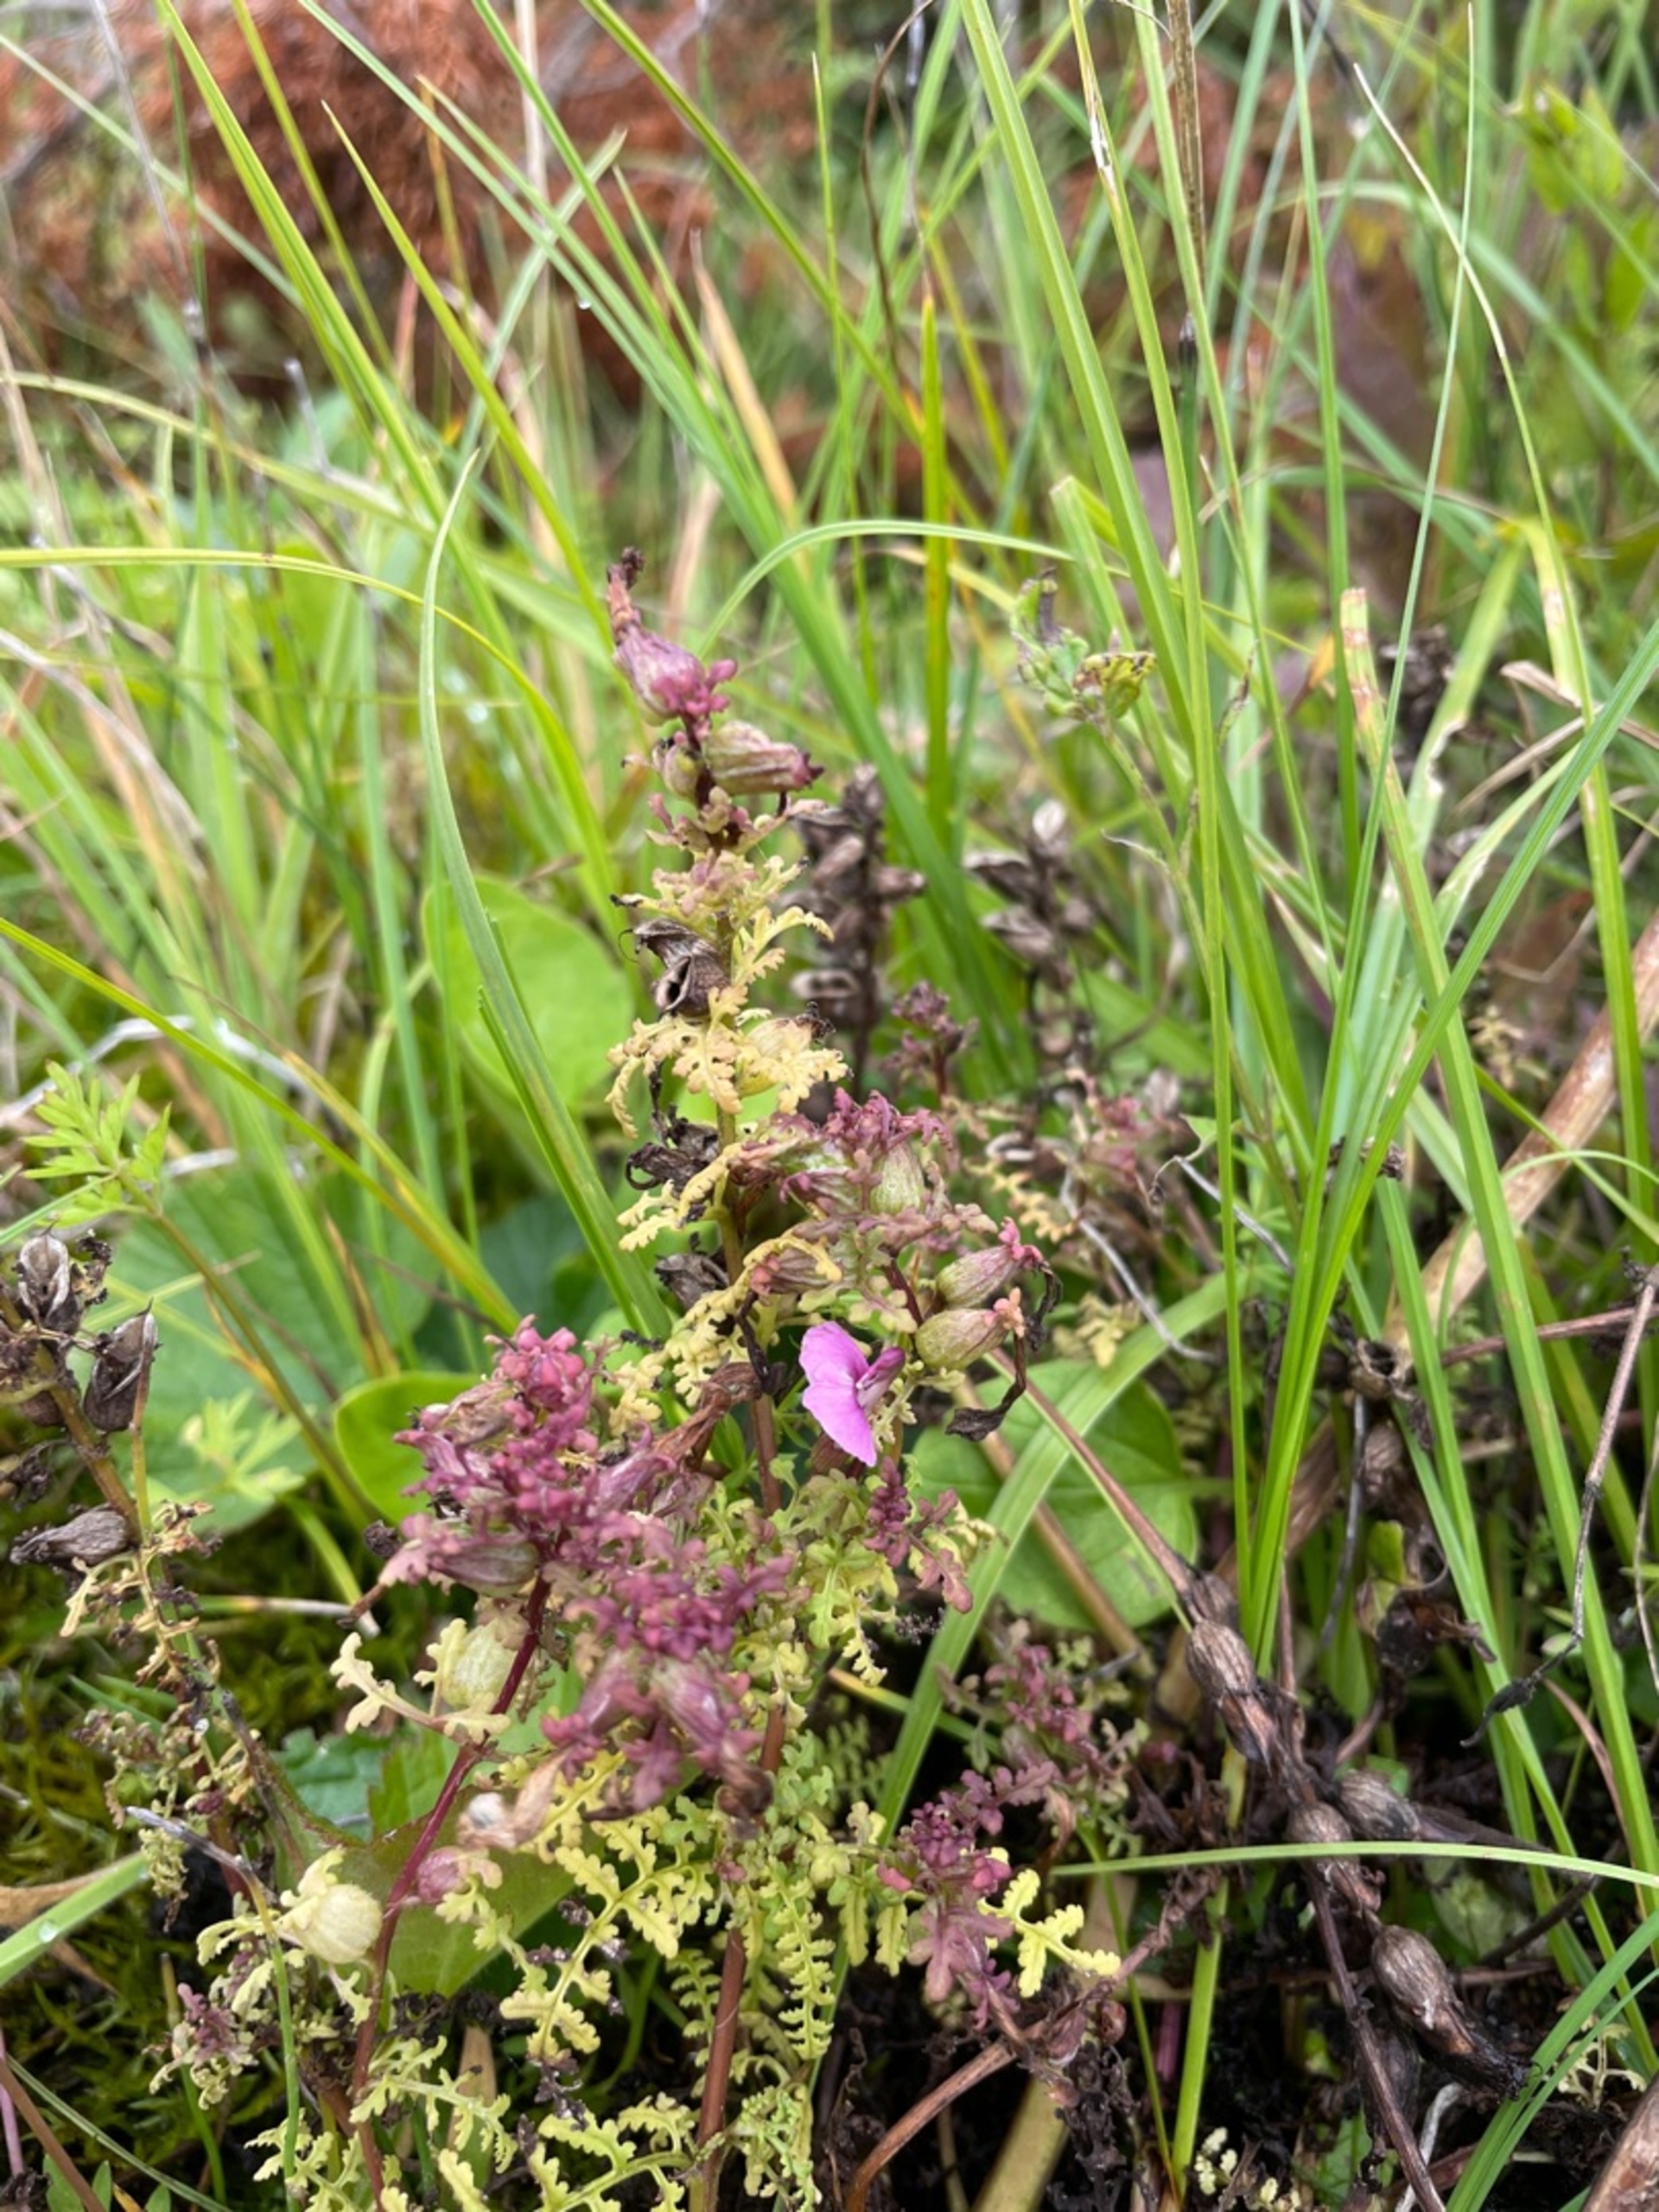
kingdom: Plantae
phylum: Tracheophyta
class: Magnoliopsida
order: Lamiales
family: Orobanchaceae
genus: Pedicularis
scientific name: Pedicularis palustris
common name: Eng-troldurt
